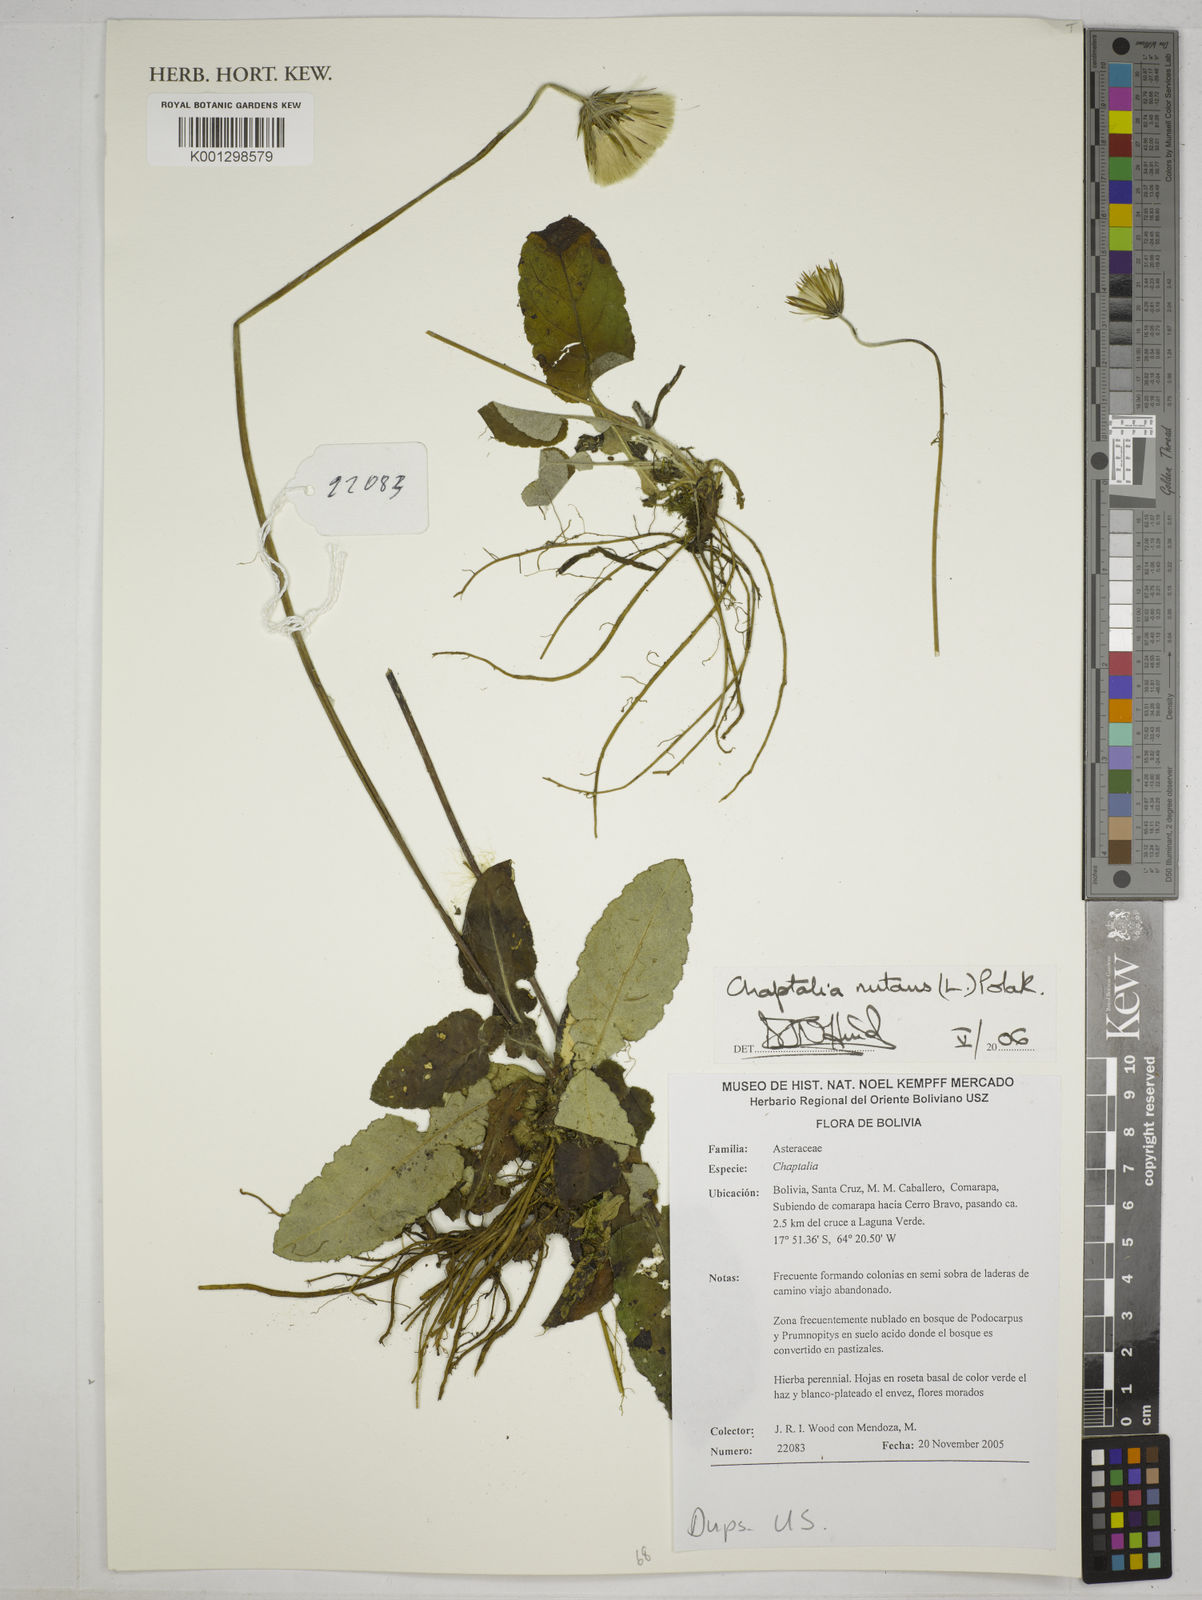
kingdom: Plantae
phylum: Tracheophyta
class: Magnoliopsida
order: Asterales
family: Asteraceae
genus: Chaptalia
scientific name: Chaptalia nutans
